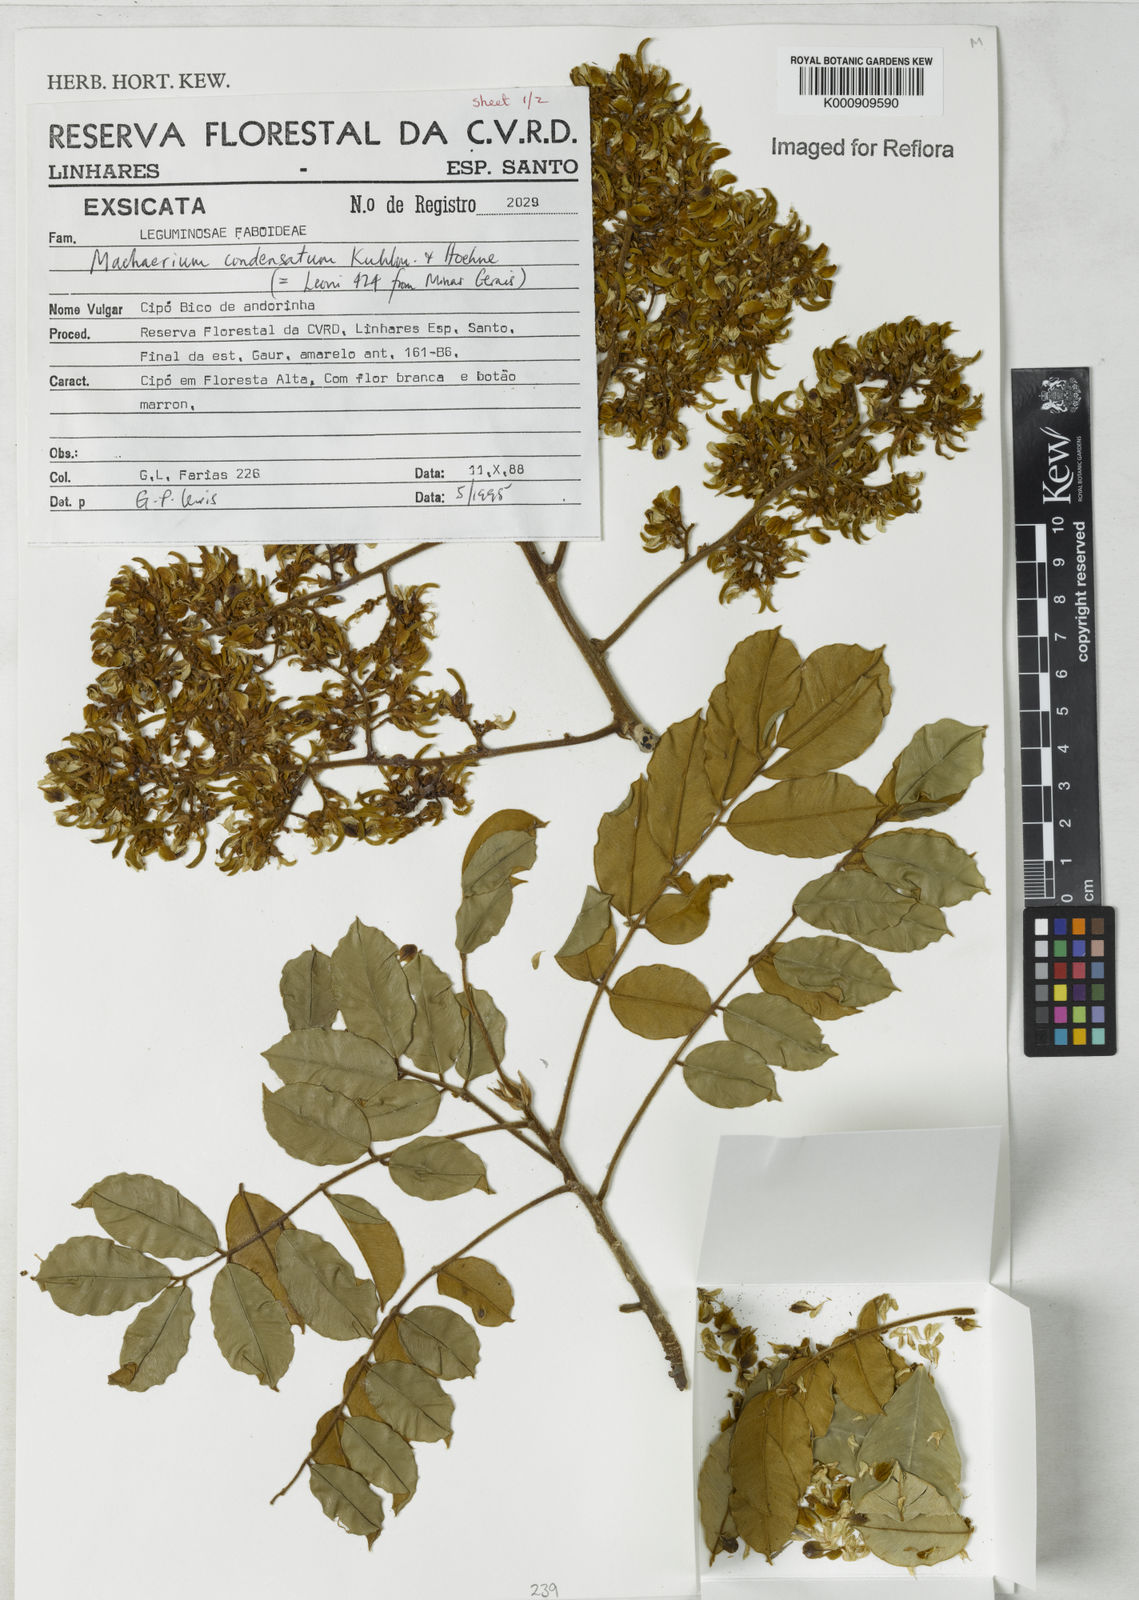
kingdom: Plantae
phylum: Tracheophyta
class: Magnoliopsida
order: Fabales
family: Fabaceae
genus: Machaerium
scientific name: Machaerium condensatum
